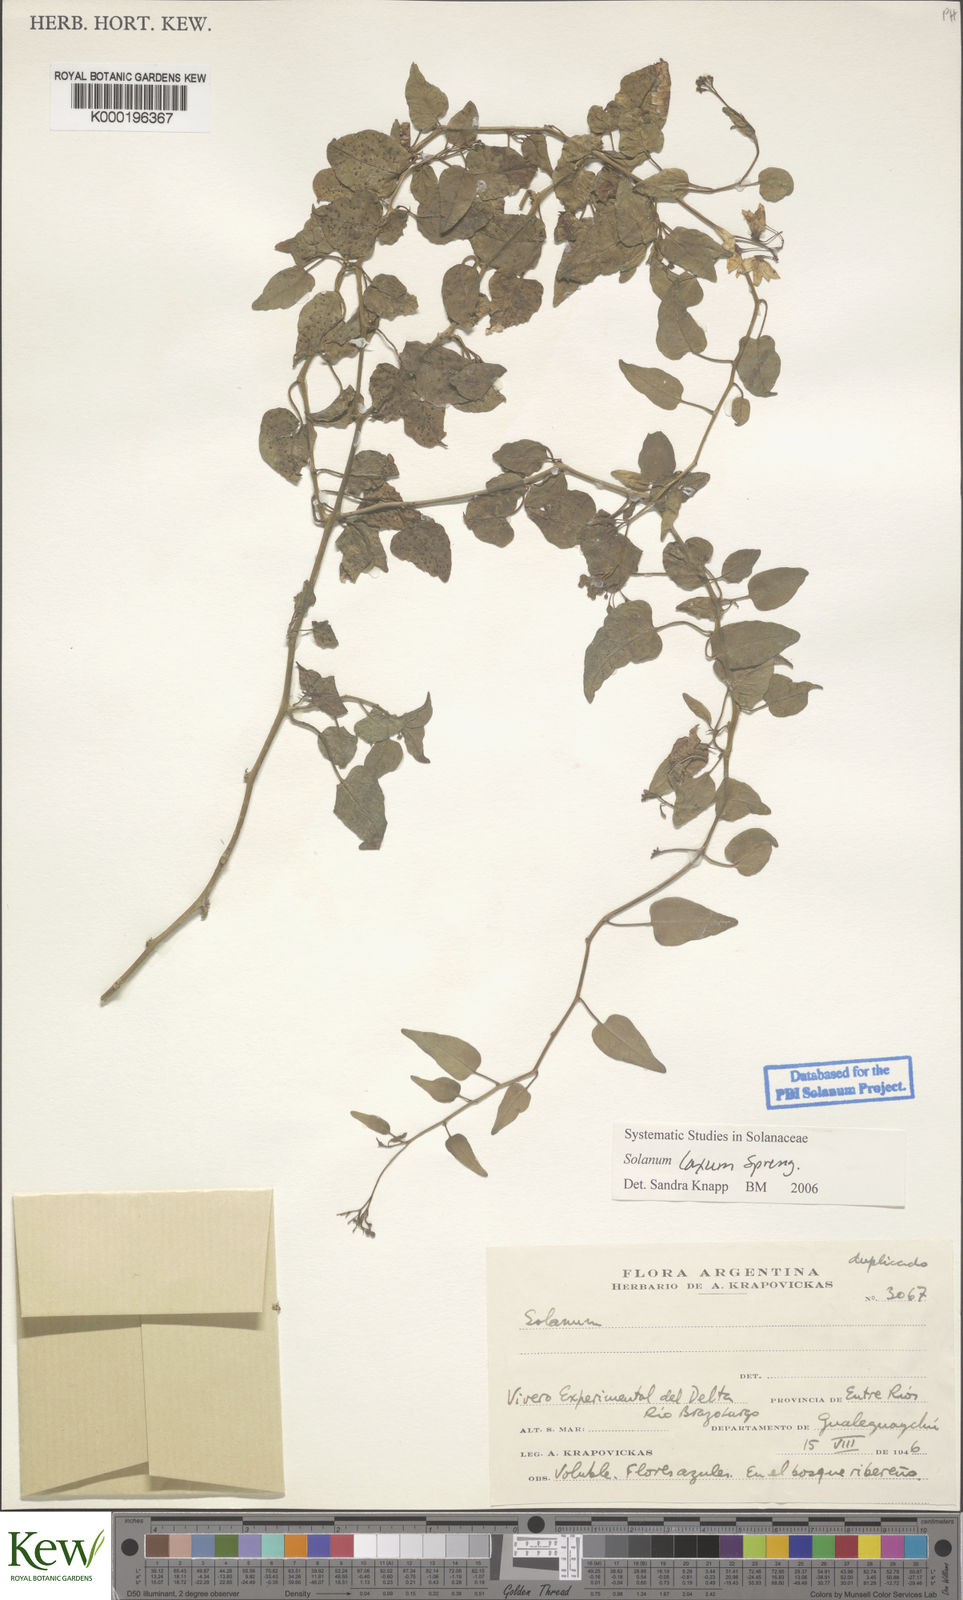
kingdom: Plantae
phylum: Tracheophyta
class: Magnoliopsida
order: Solanales
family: Solanaceae
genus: Solanum
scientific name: Solanum laxum
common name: Nightshade
